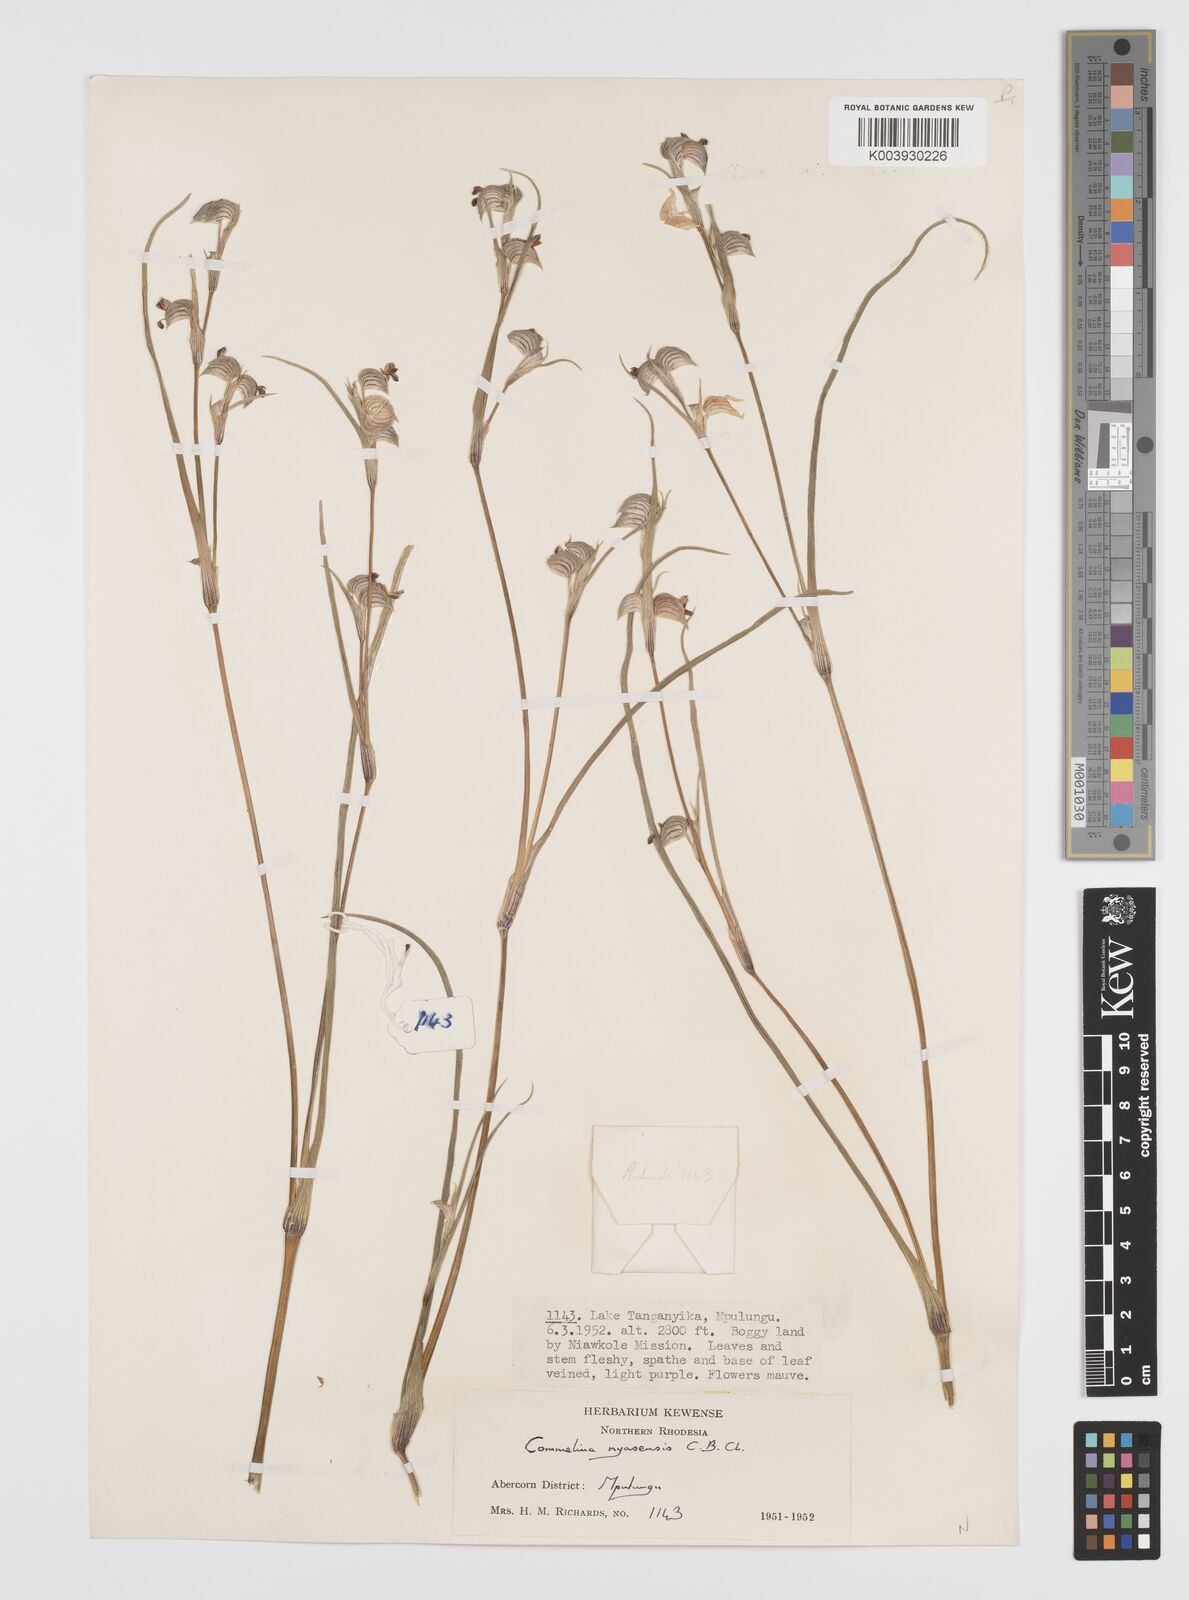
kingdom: Plantae
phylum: Tracheophyta
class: Liliopsida
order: Commelinales
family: Commelinaceae
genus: Commelina
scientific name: Commelina nyasensis
